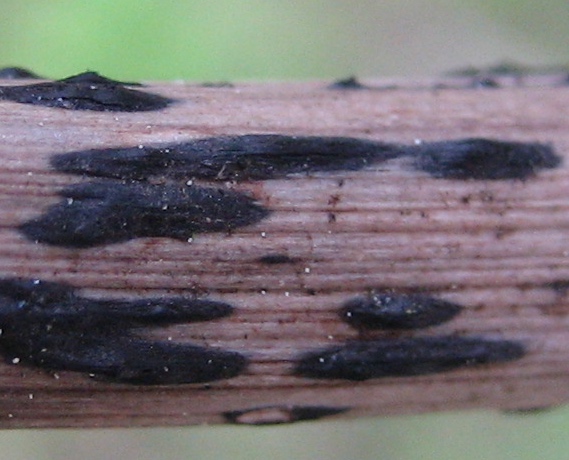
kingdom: Fungi
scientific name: Fungi
